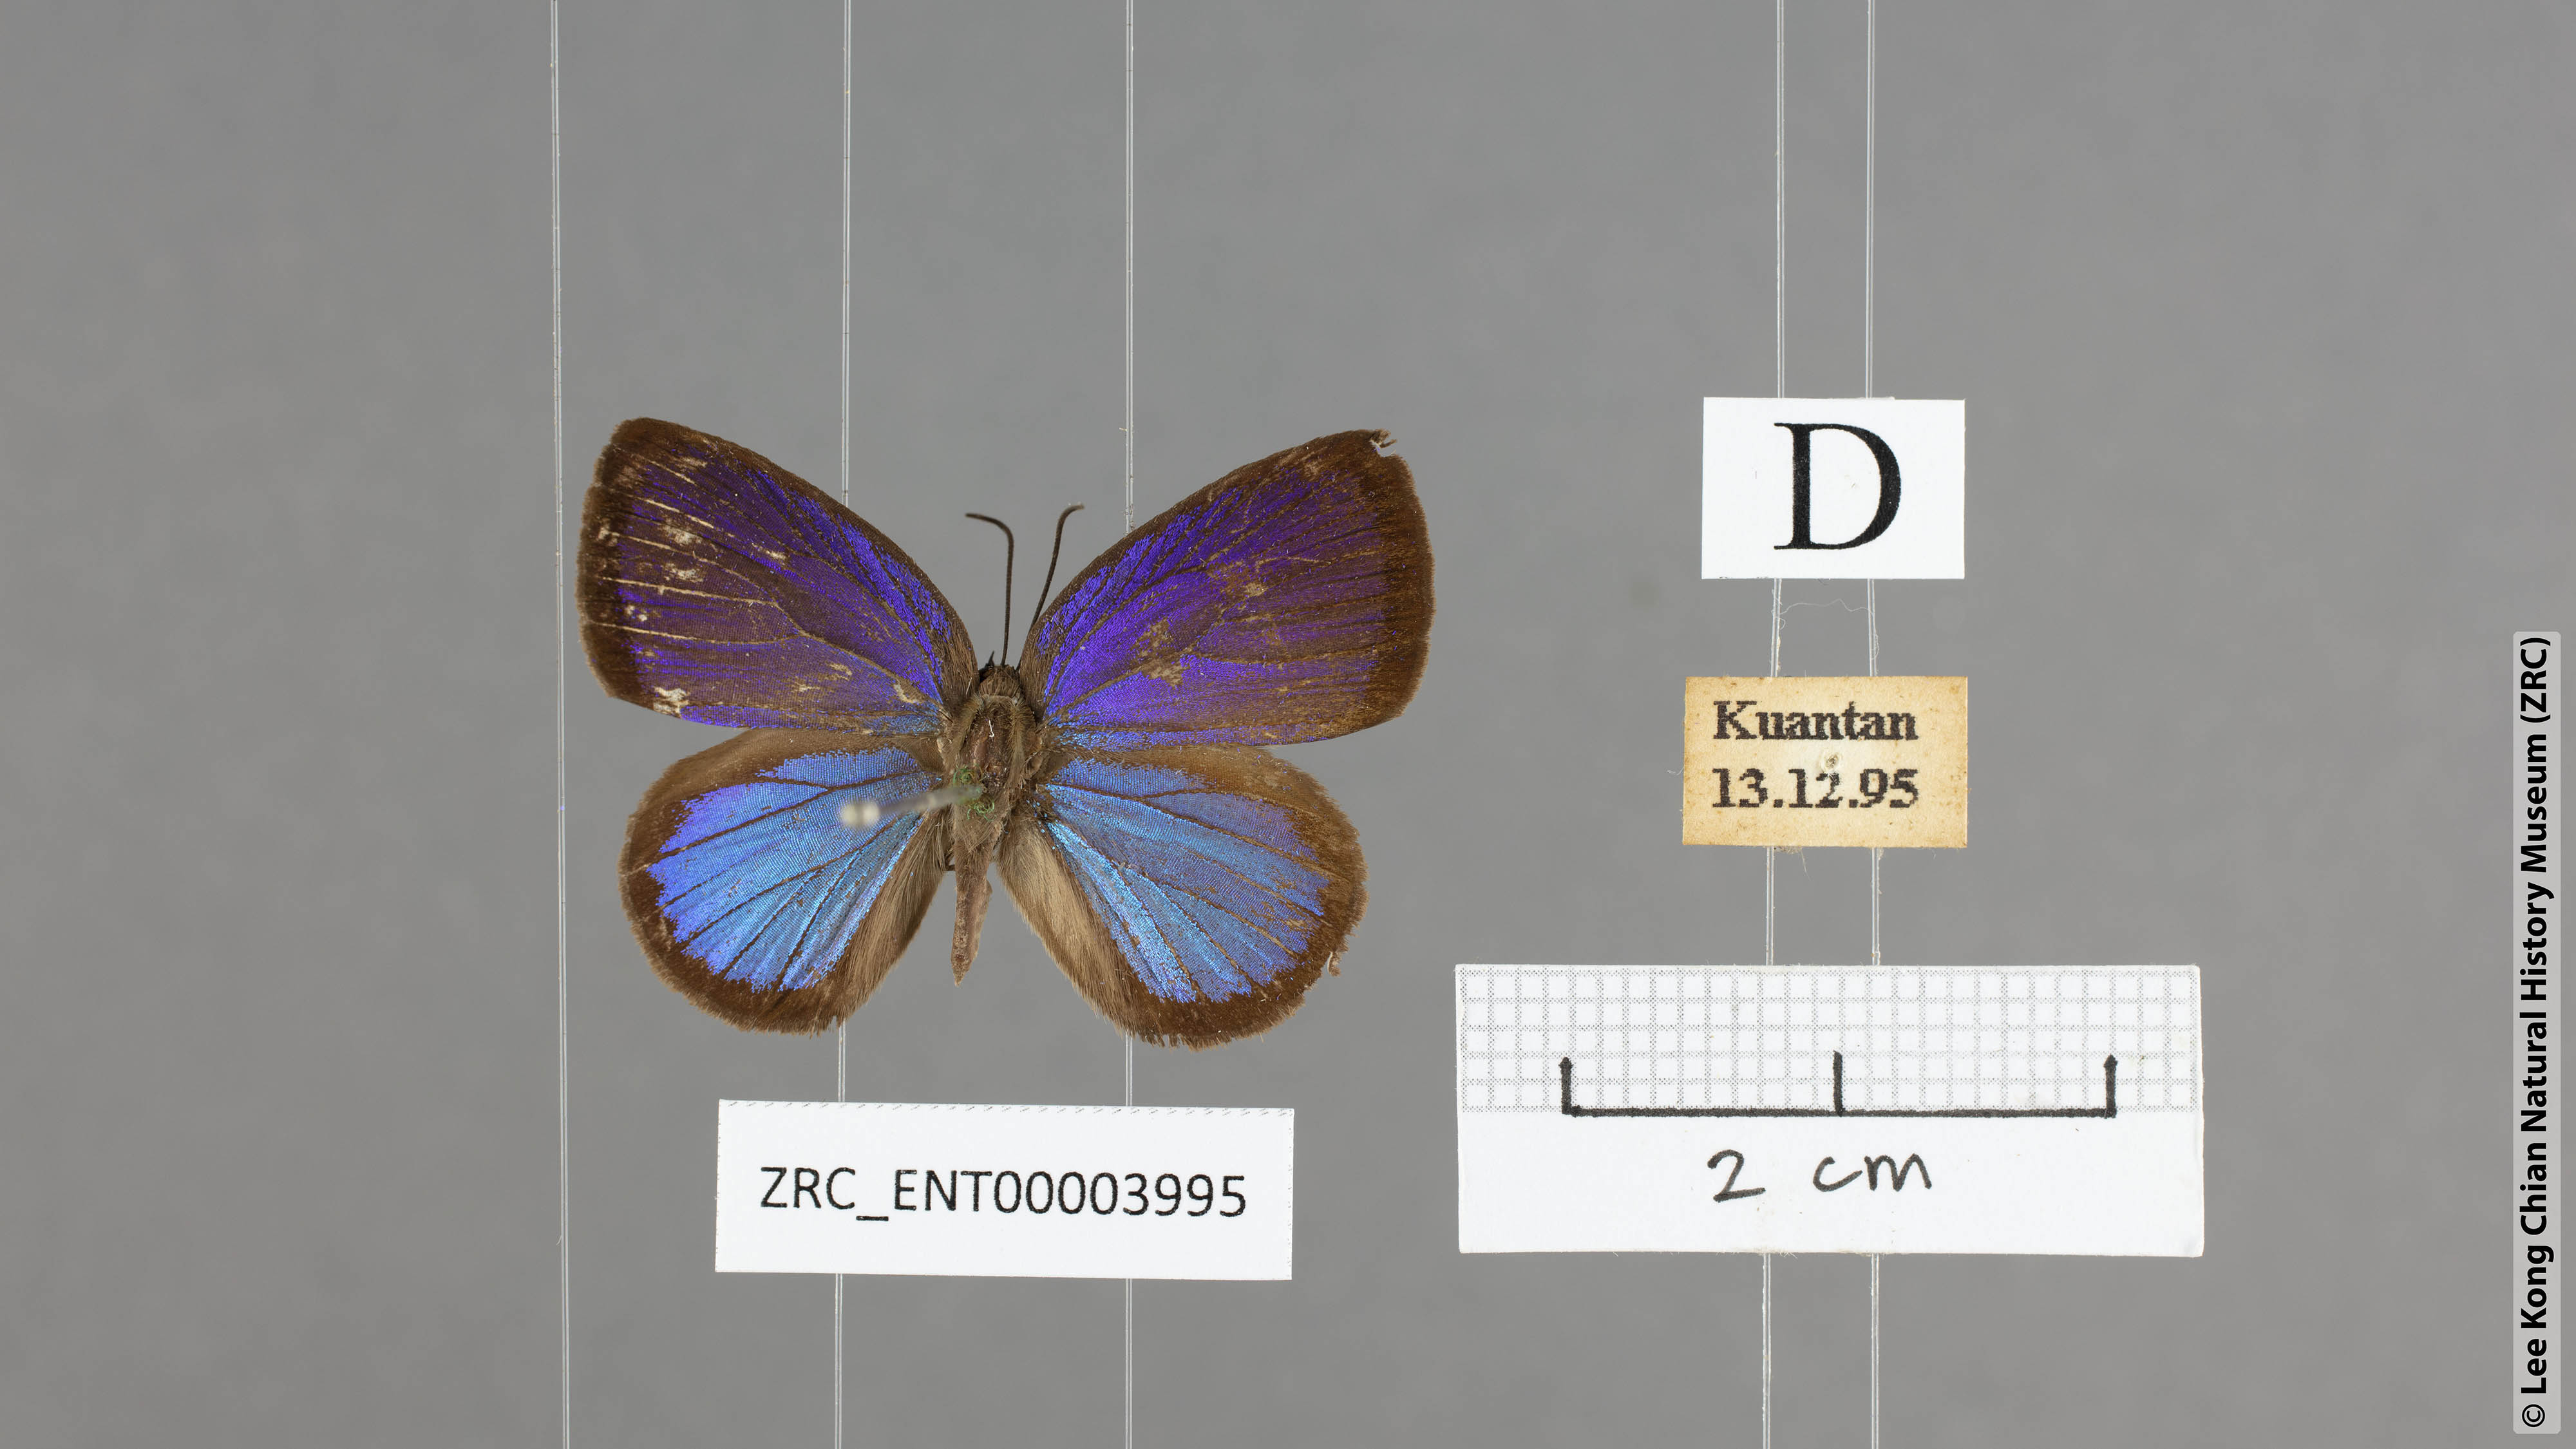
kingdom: Animalia
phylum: Arthropoda
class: Insecta
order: Lepidoptera
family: Lycaenidae
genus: Arhopala
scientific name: Arhopala metamuta
